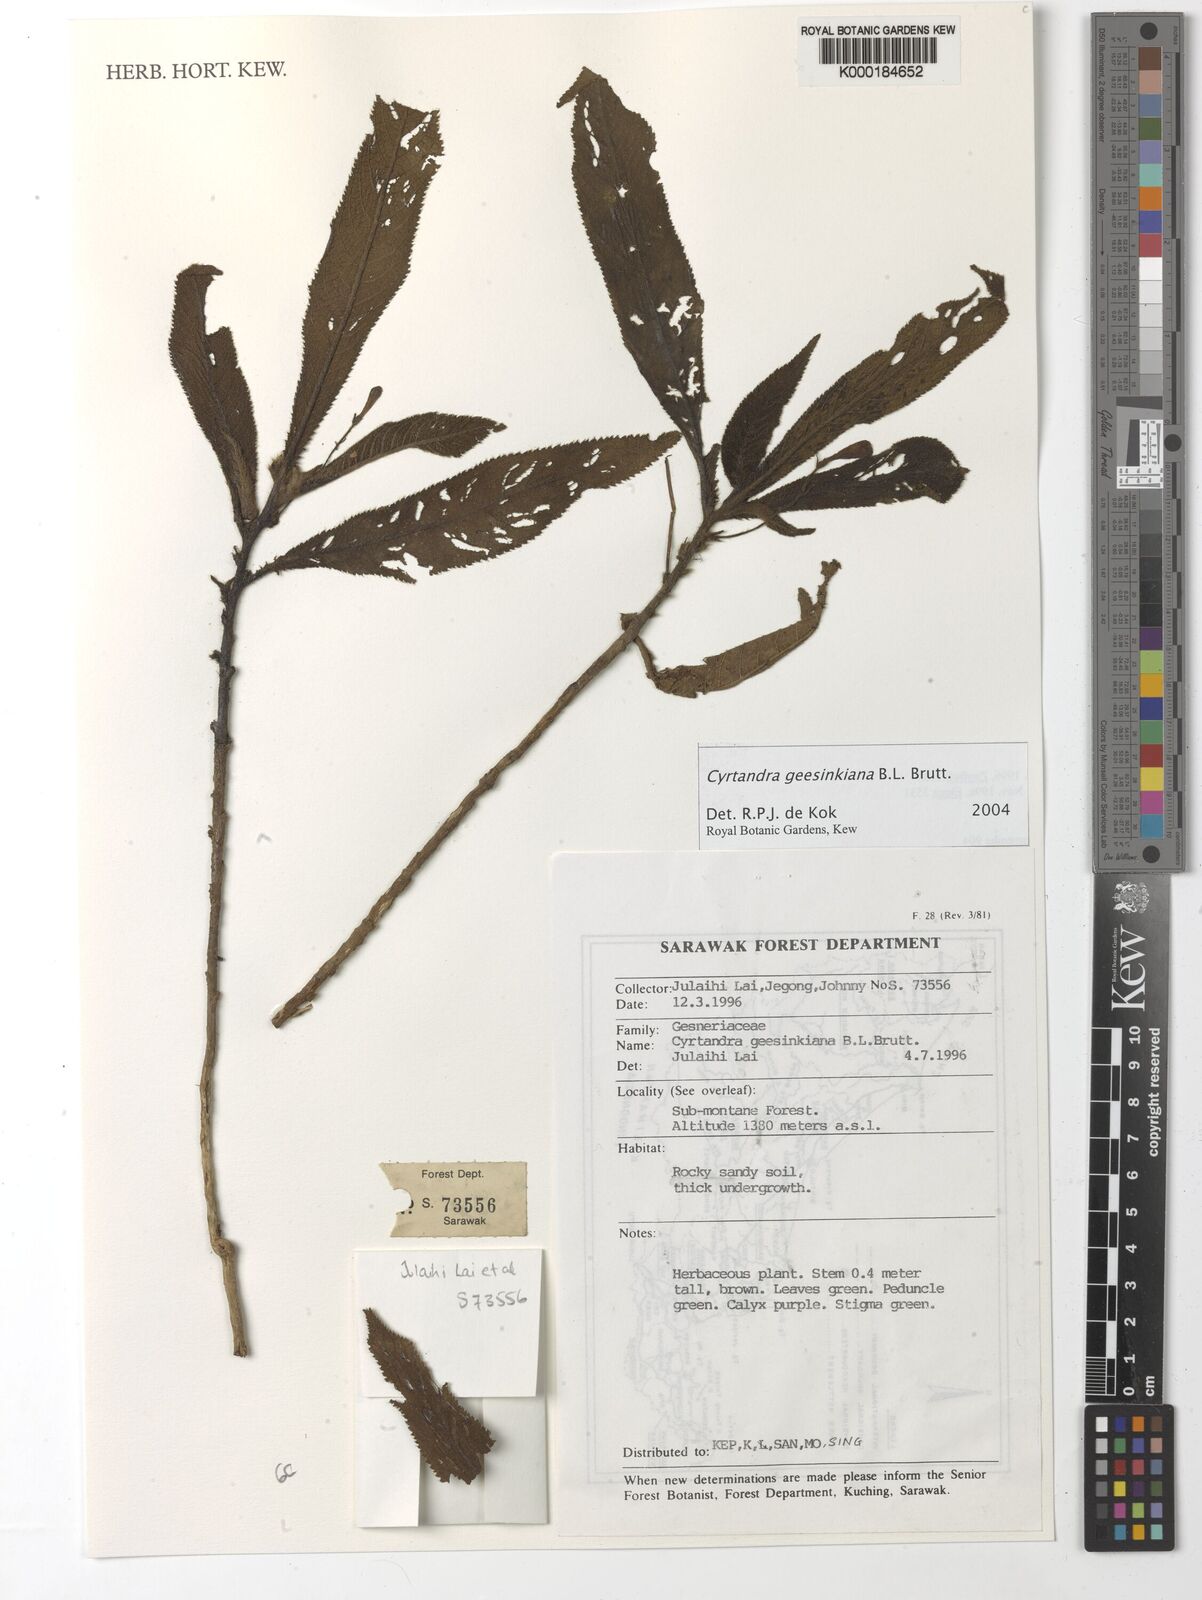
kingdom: Plantae
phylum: Tracheophyta
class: Magnoliopsida
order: Lamiales
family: Gesneriaceae
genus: Cyrtandra
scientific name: Cyrtandra geesinkiana
